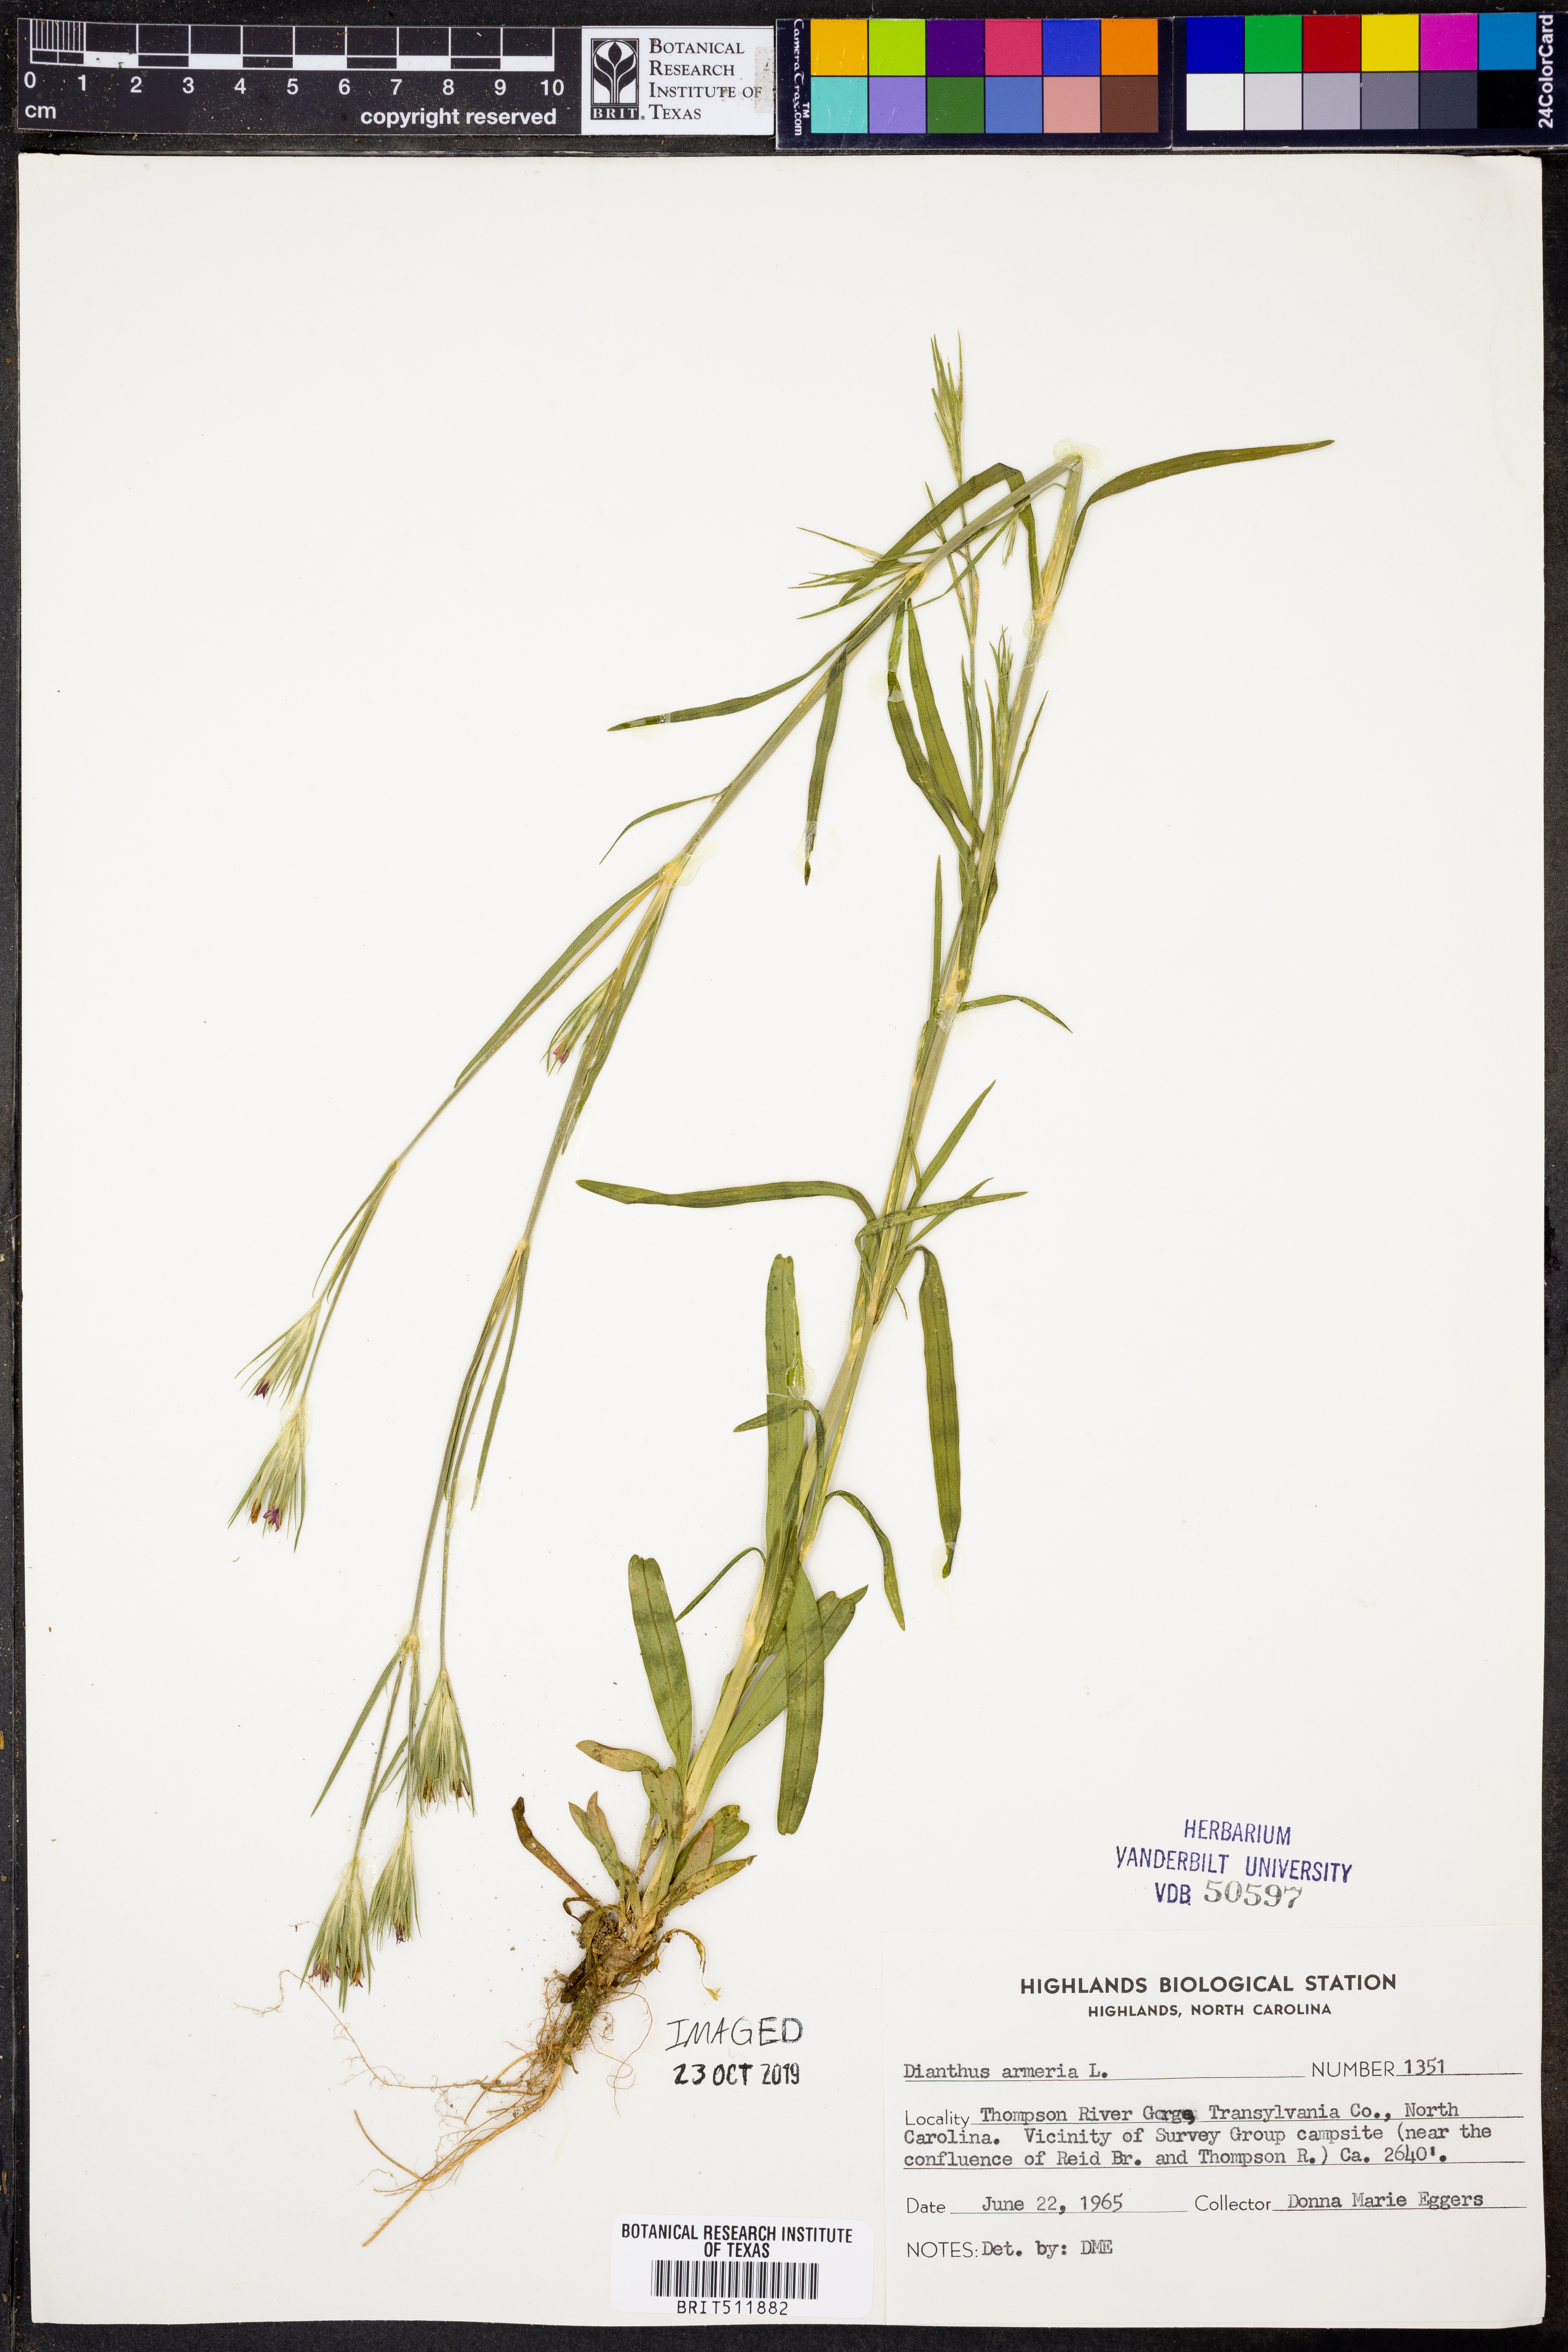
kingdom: Plantae
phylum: Tracheophyta
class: Magnoliopsida
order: Caryophyllales
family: Caryophyllaceae
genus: Dianthus
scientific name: Dianthus armeria
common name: Deptford pink
